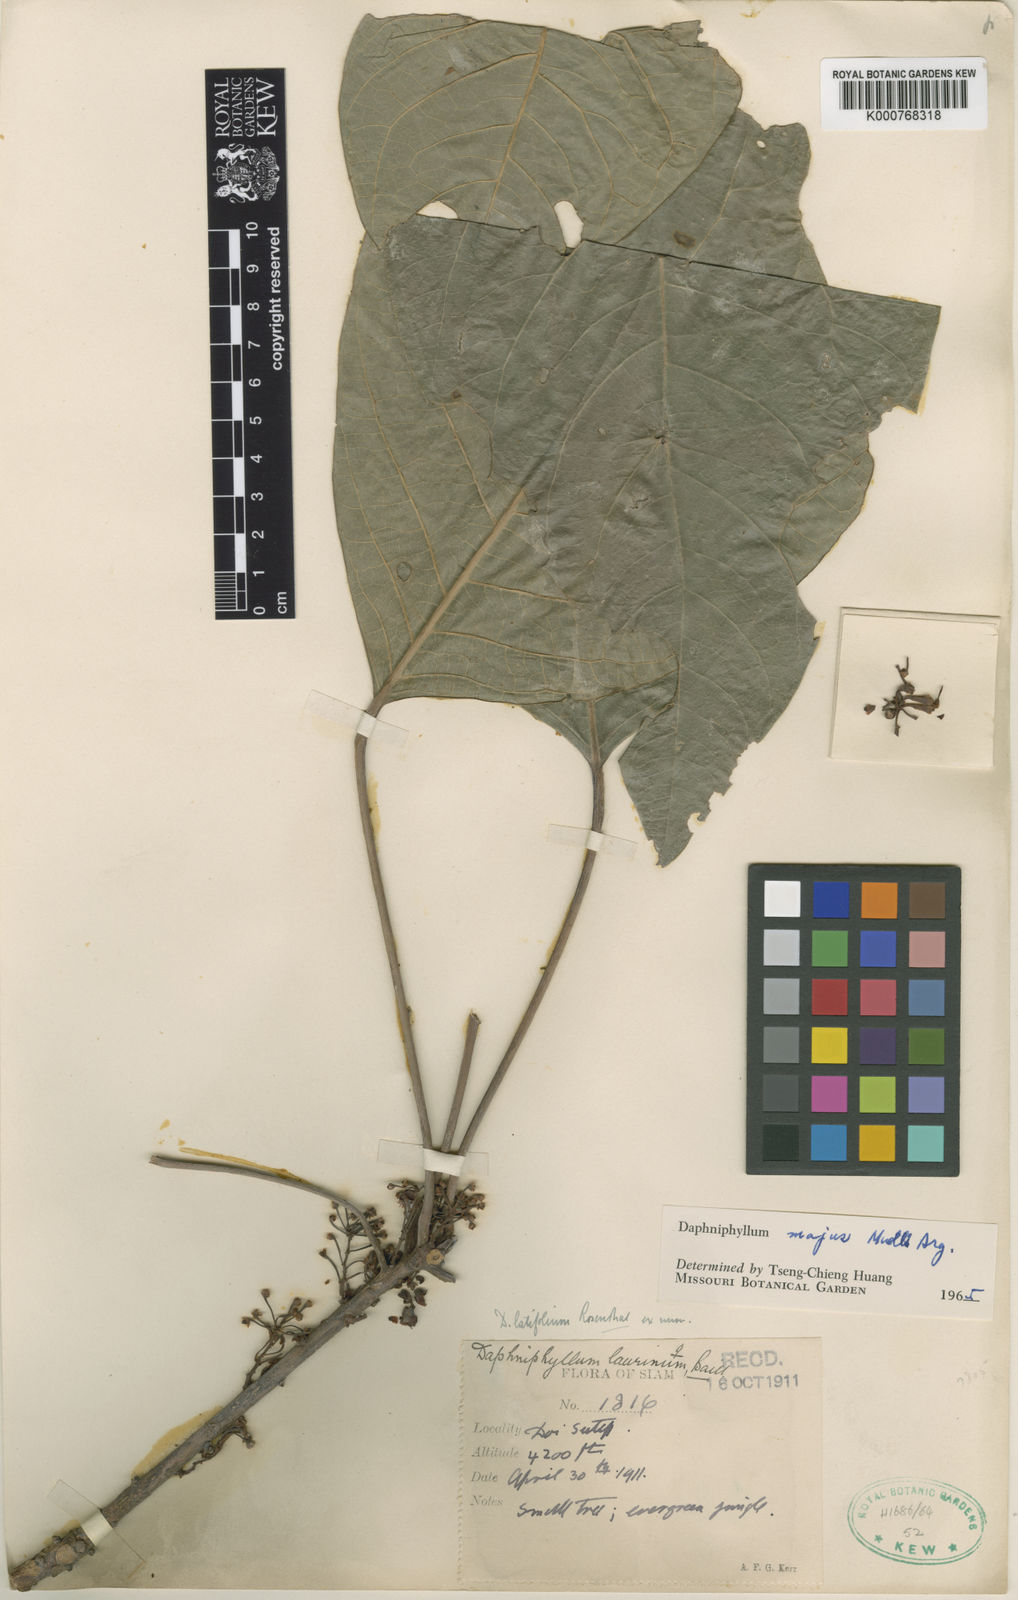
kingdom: Plantae
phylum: Tracheophyta
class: Magnoliopsida
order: Saxifragales
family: Daphniphyllaceae
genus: Daphniphyllum
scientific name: Daphniphyllum
